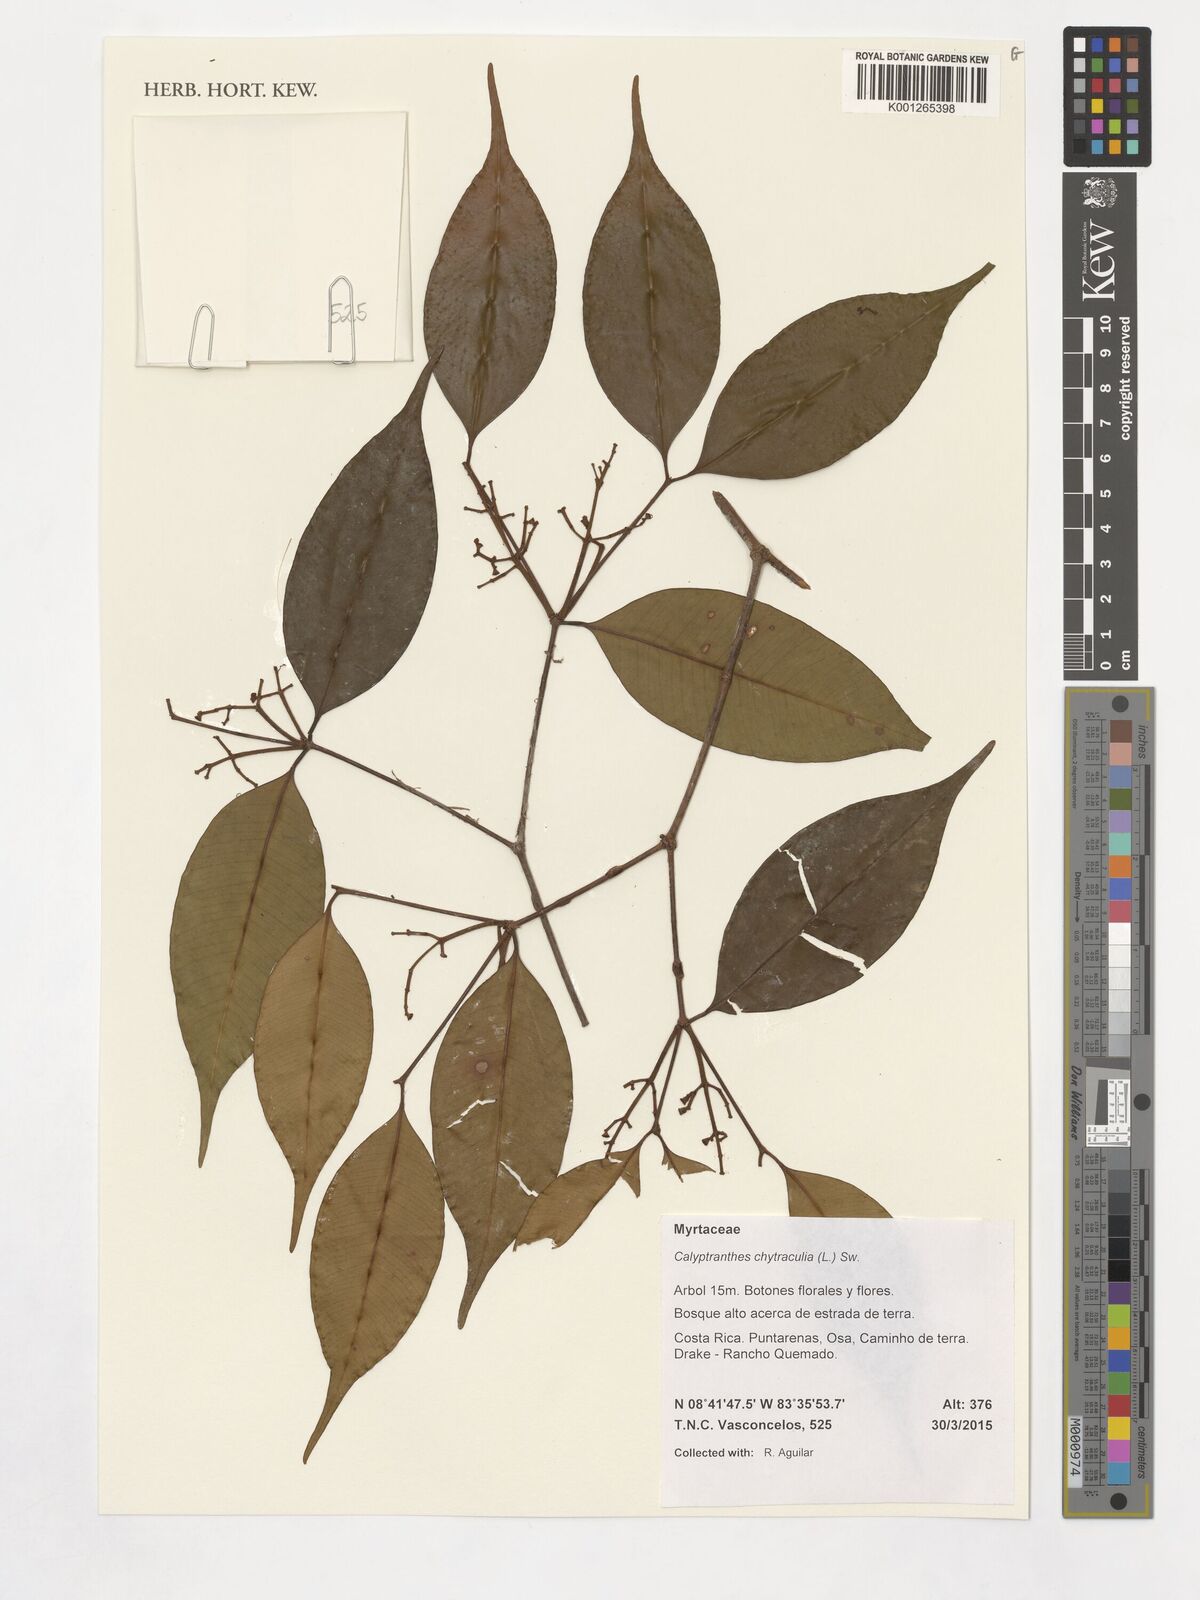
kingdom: Plantae
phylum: Tracheophyta
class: Magnoliopsida
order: Myrtales
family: Myrtaceae
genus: Myrcia
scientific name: Myrcia chytraculia
